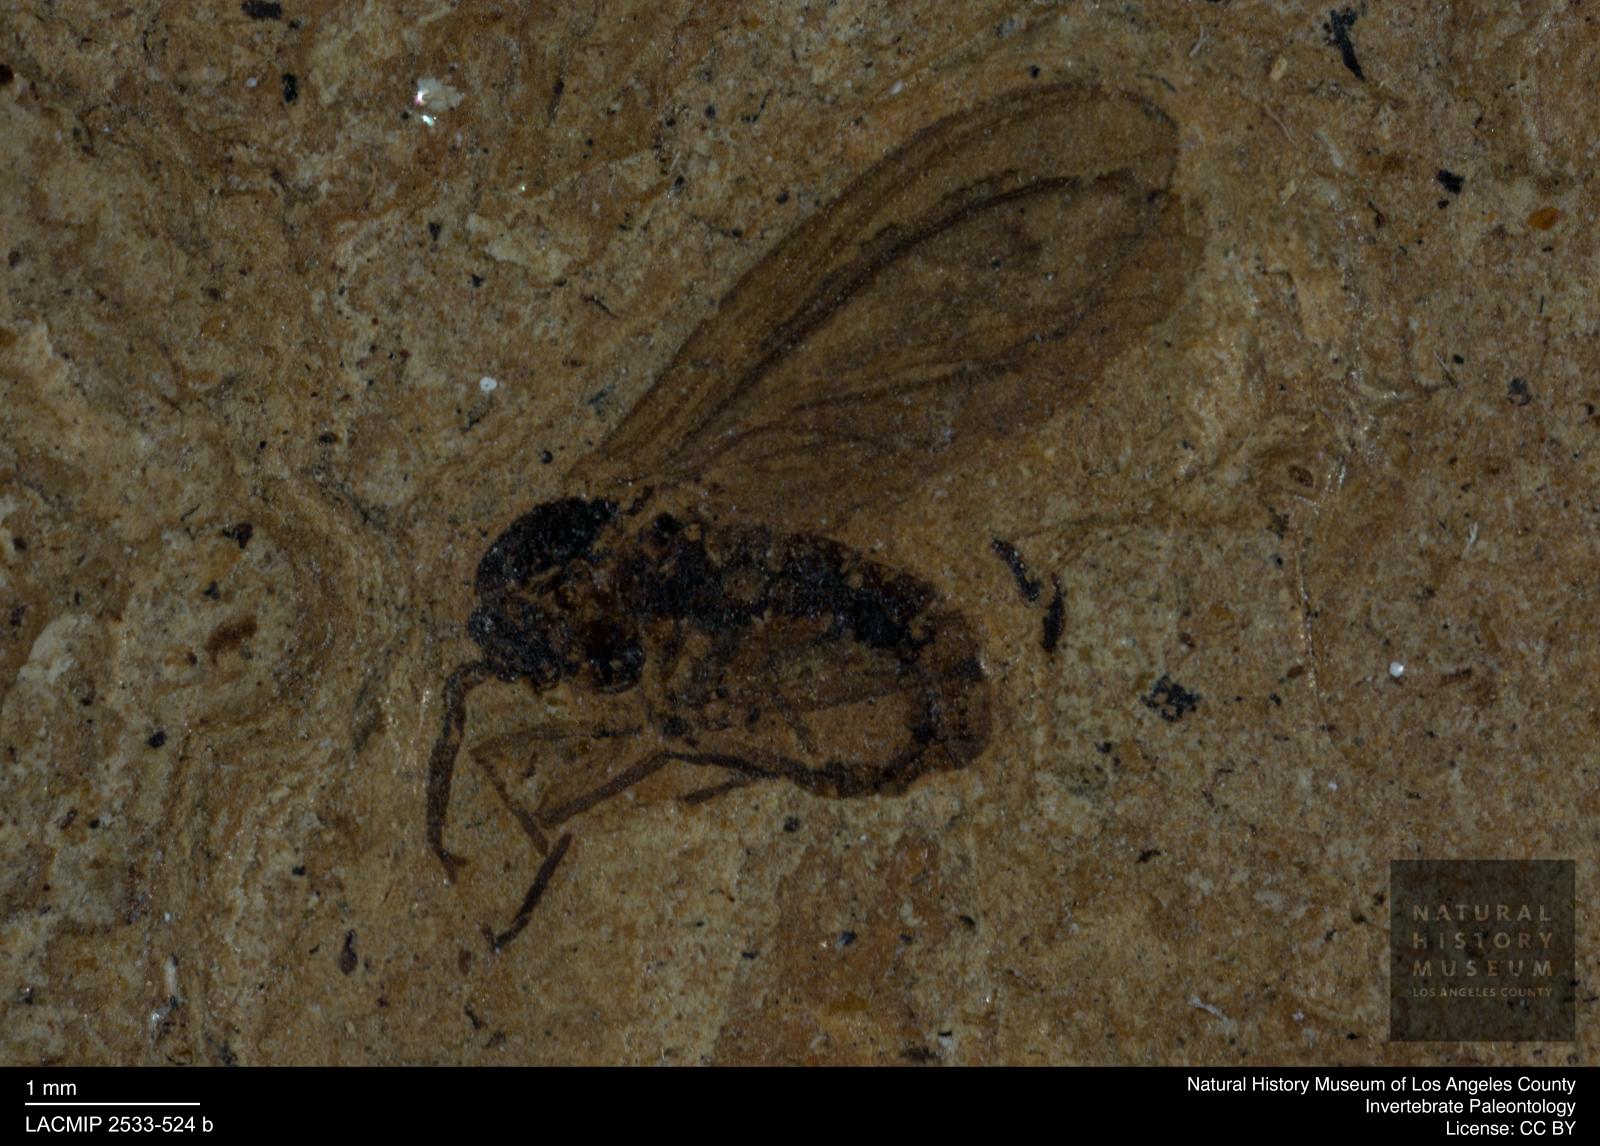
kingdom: Animalia
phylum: Arthropoda
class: Insecta
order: Diptera
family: Mycetophilidae
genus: Leia
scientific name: Leia exhumata
